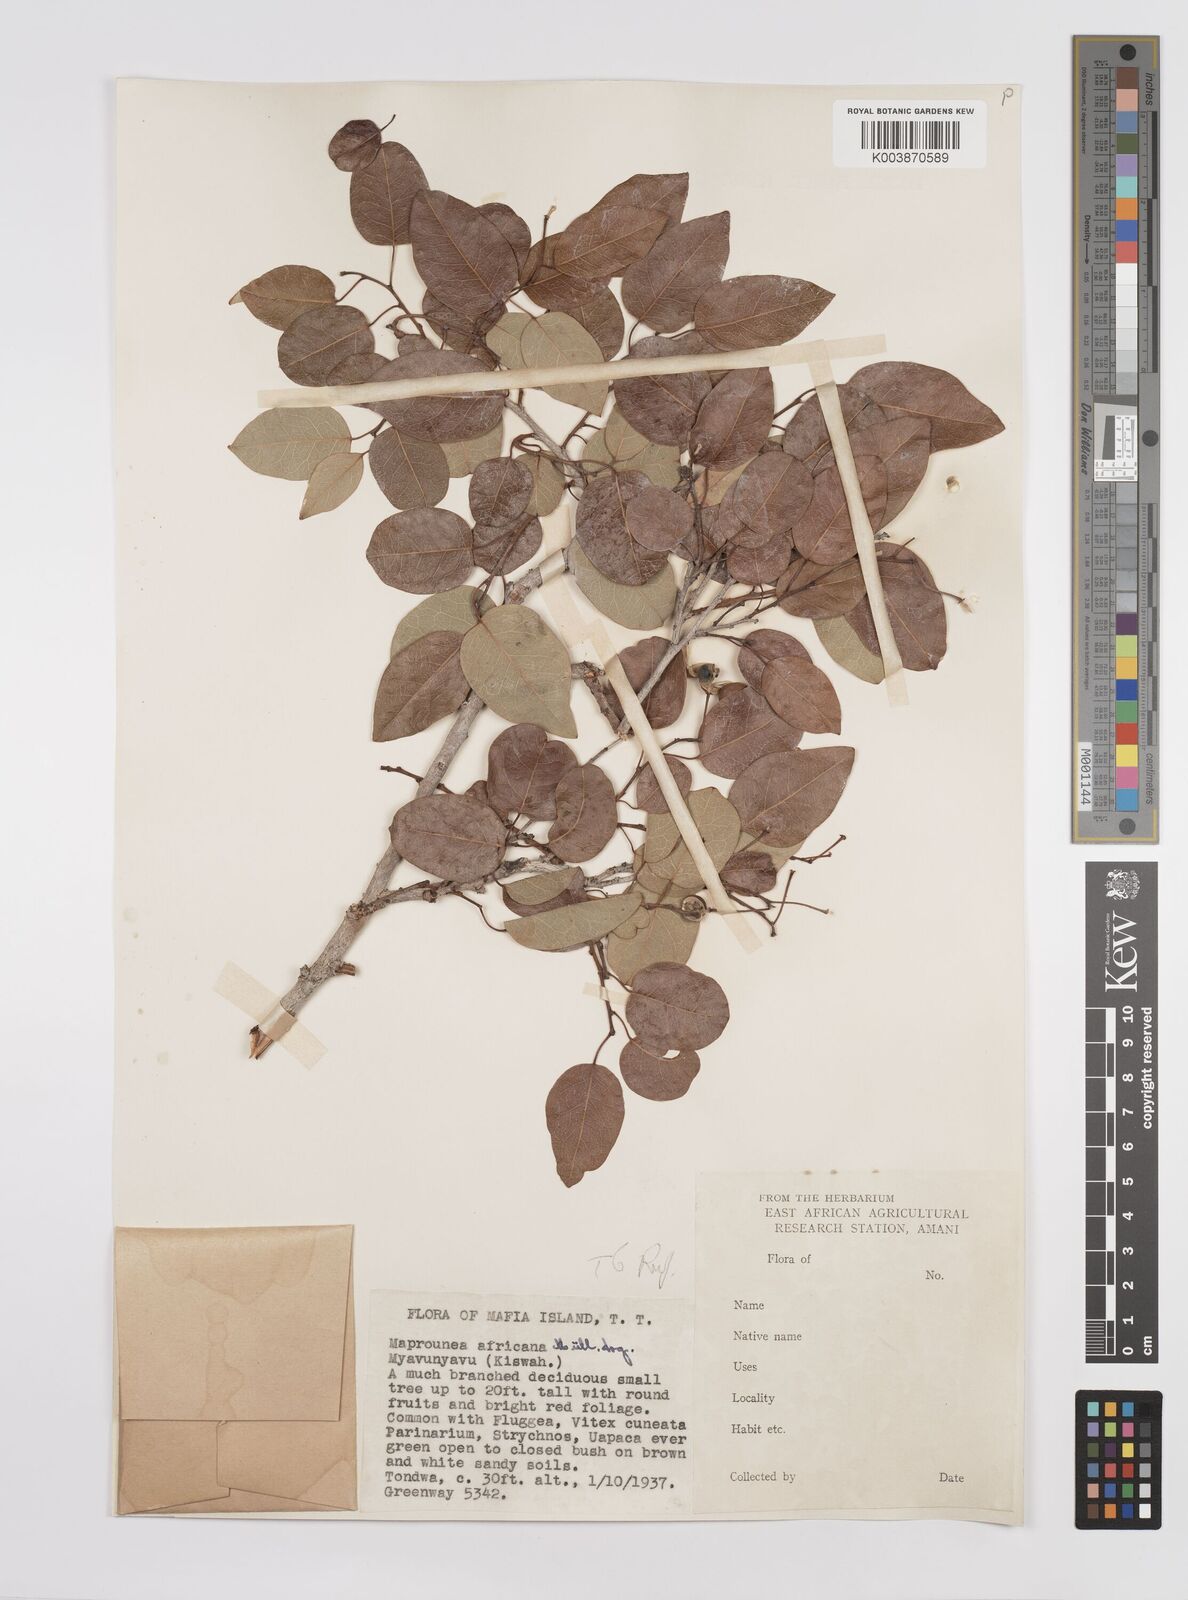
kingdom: Plantae
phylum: Tracheophyta
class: Magnoliopsida
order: Malpighiales
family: Euphorbiaceae
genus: Maprounea
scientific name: Maprounea africana
